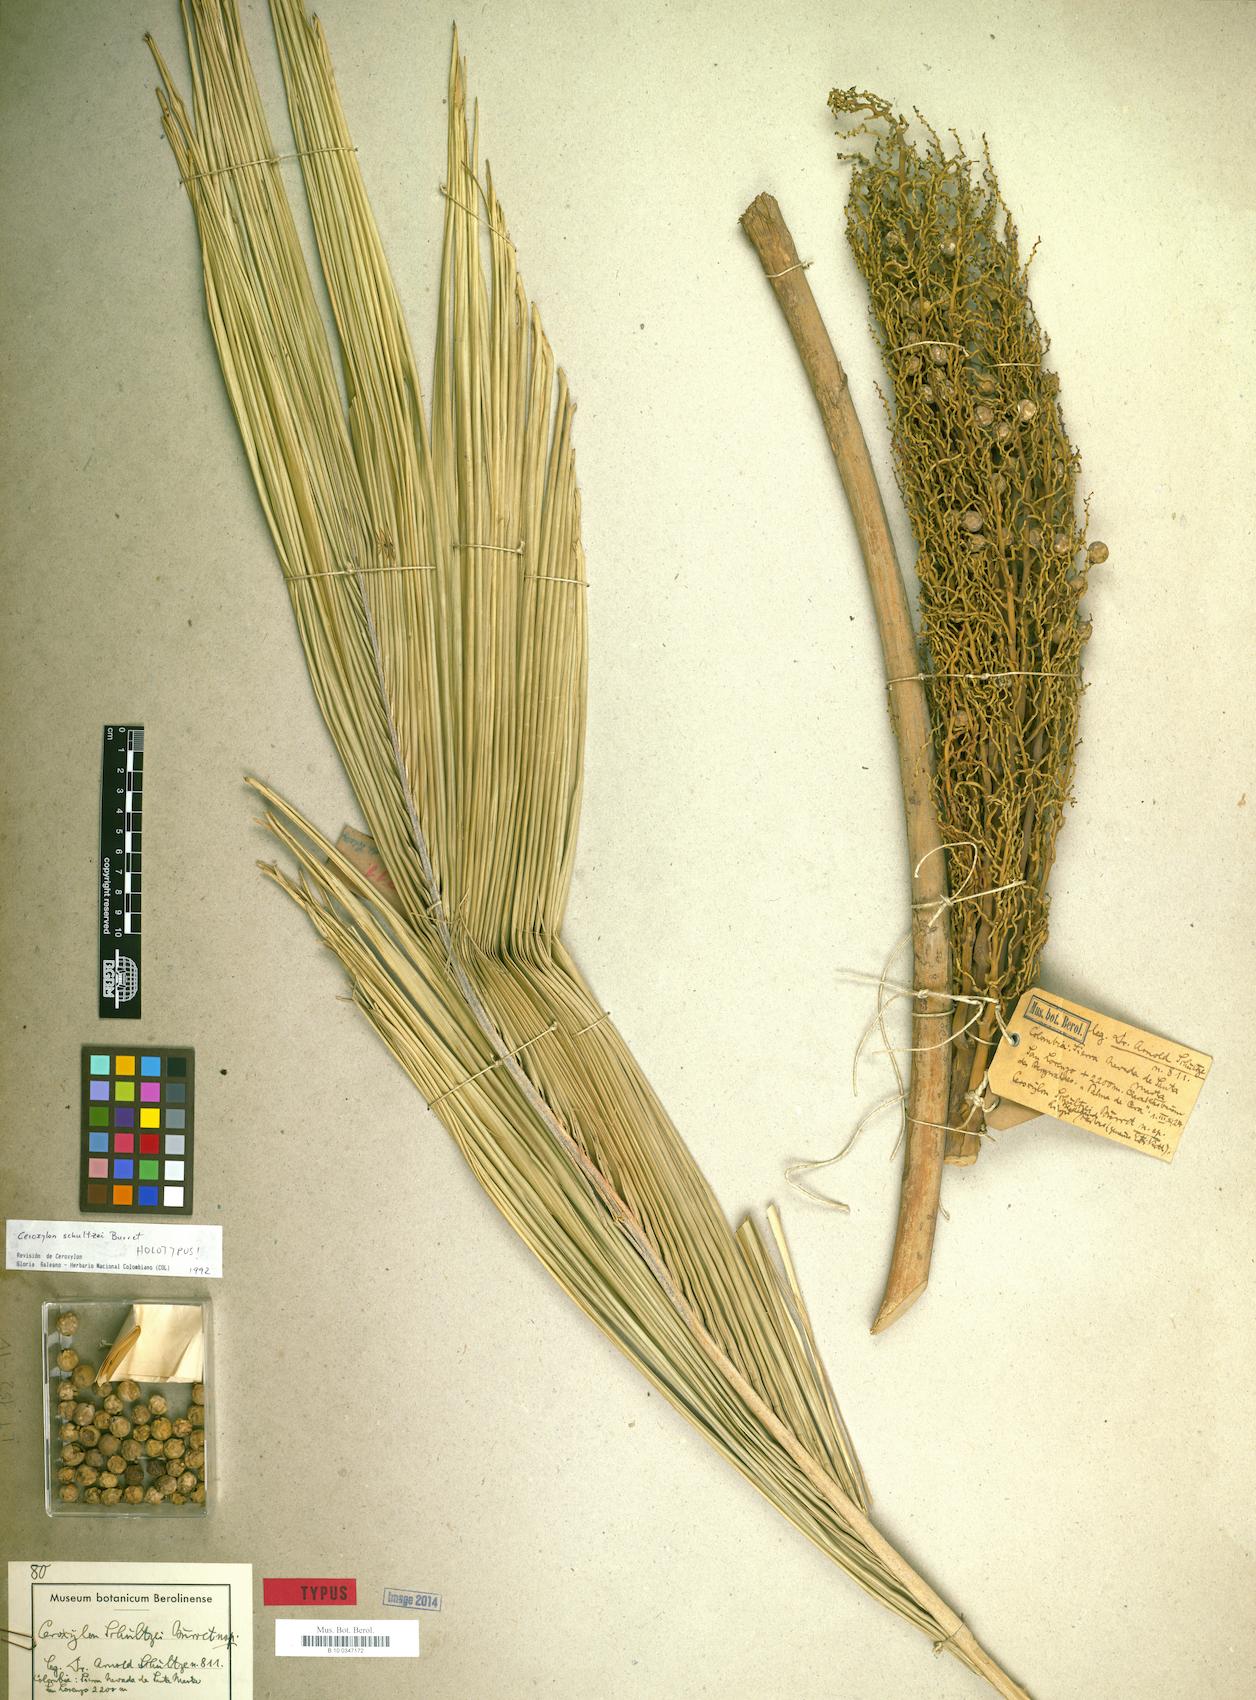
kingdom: Plantae
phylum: Tracheophyta
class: Liliopsida
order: Arecales
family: Arecaceae
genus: Ceroxylon
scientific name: Ceroxylon ceriferum
